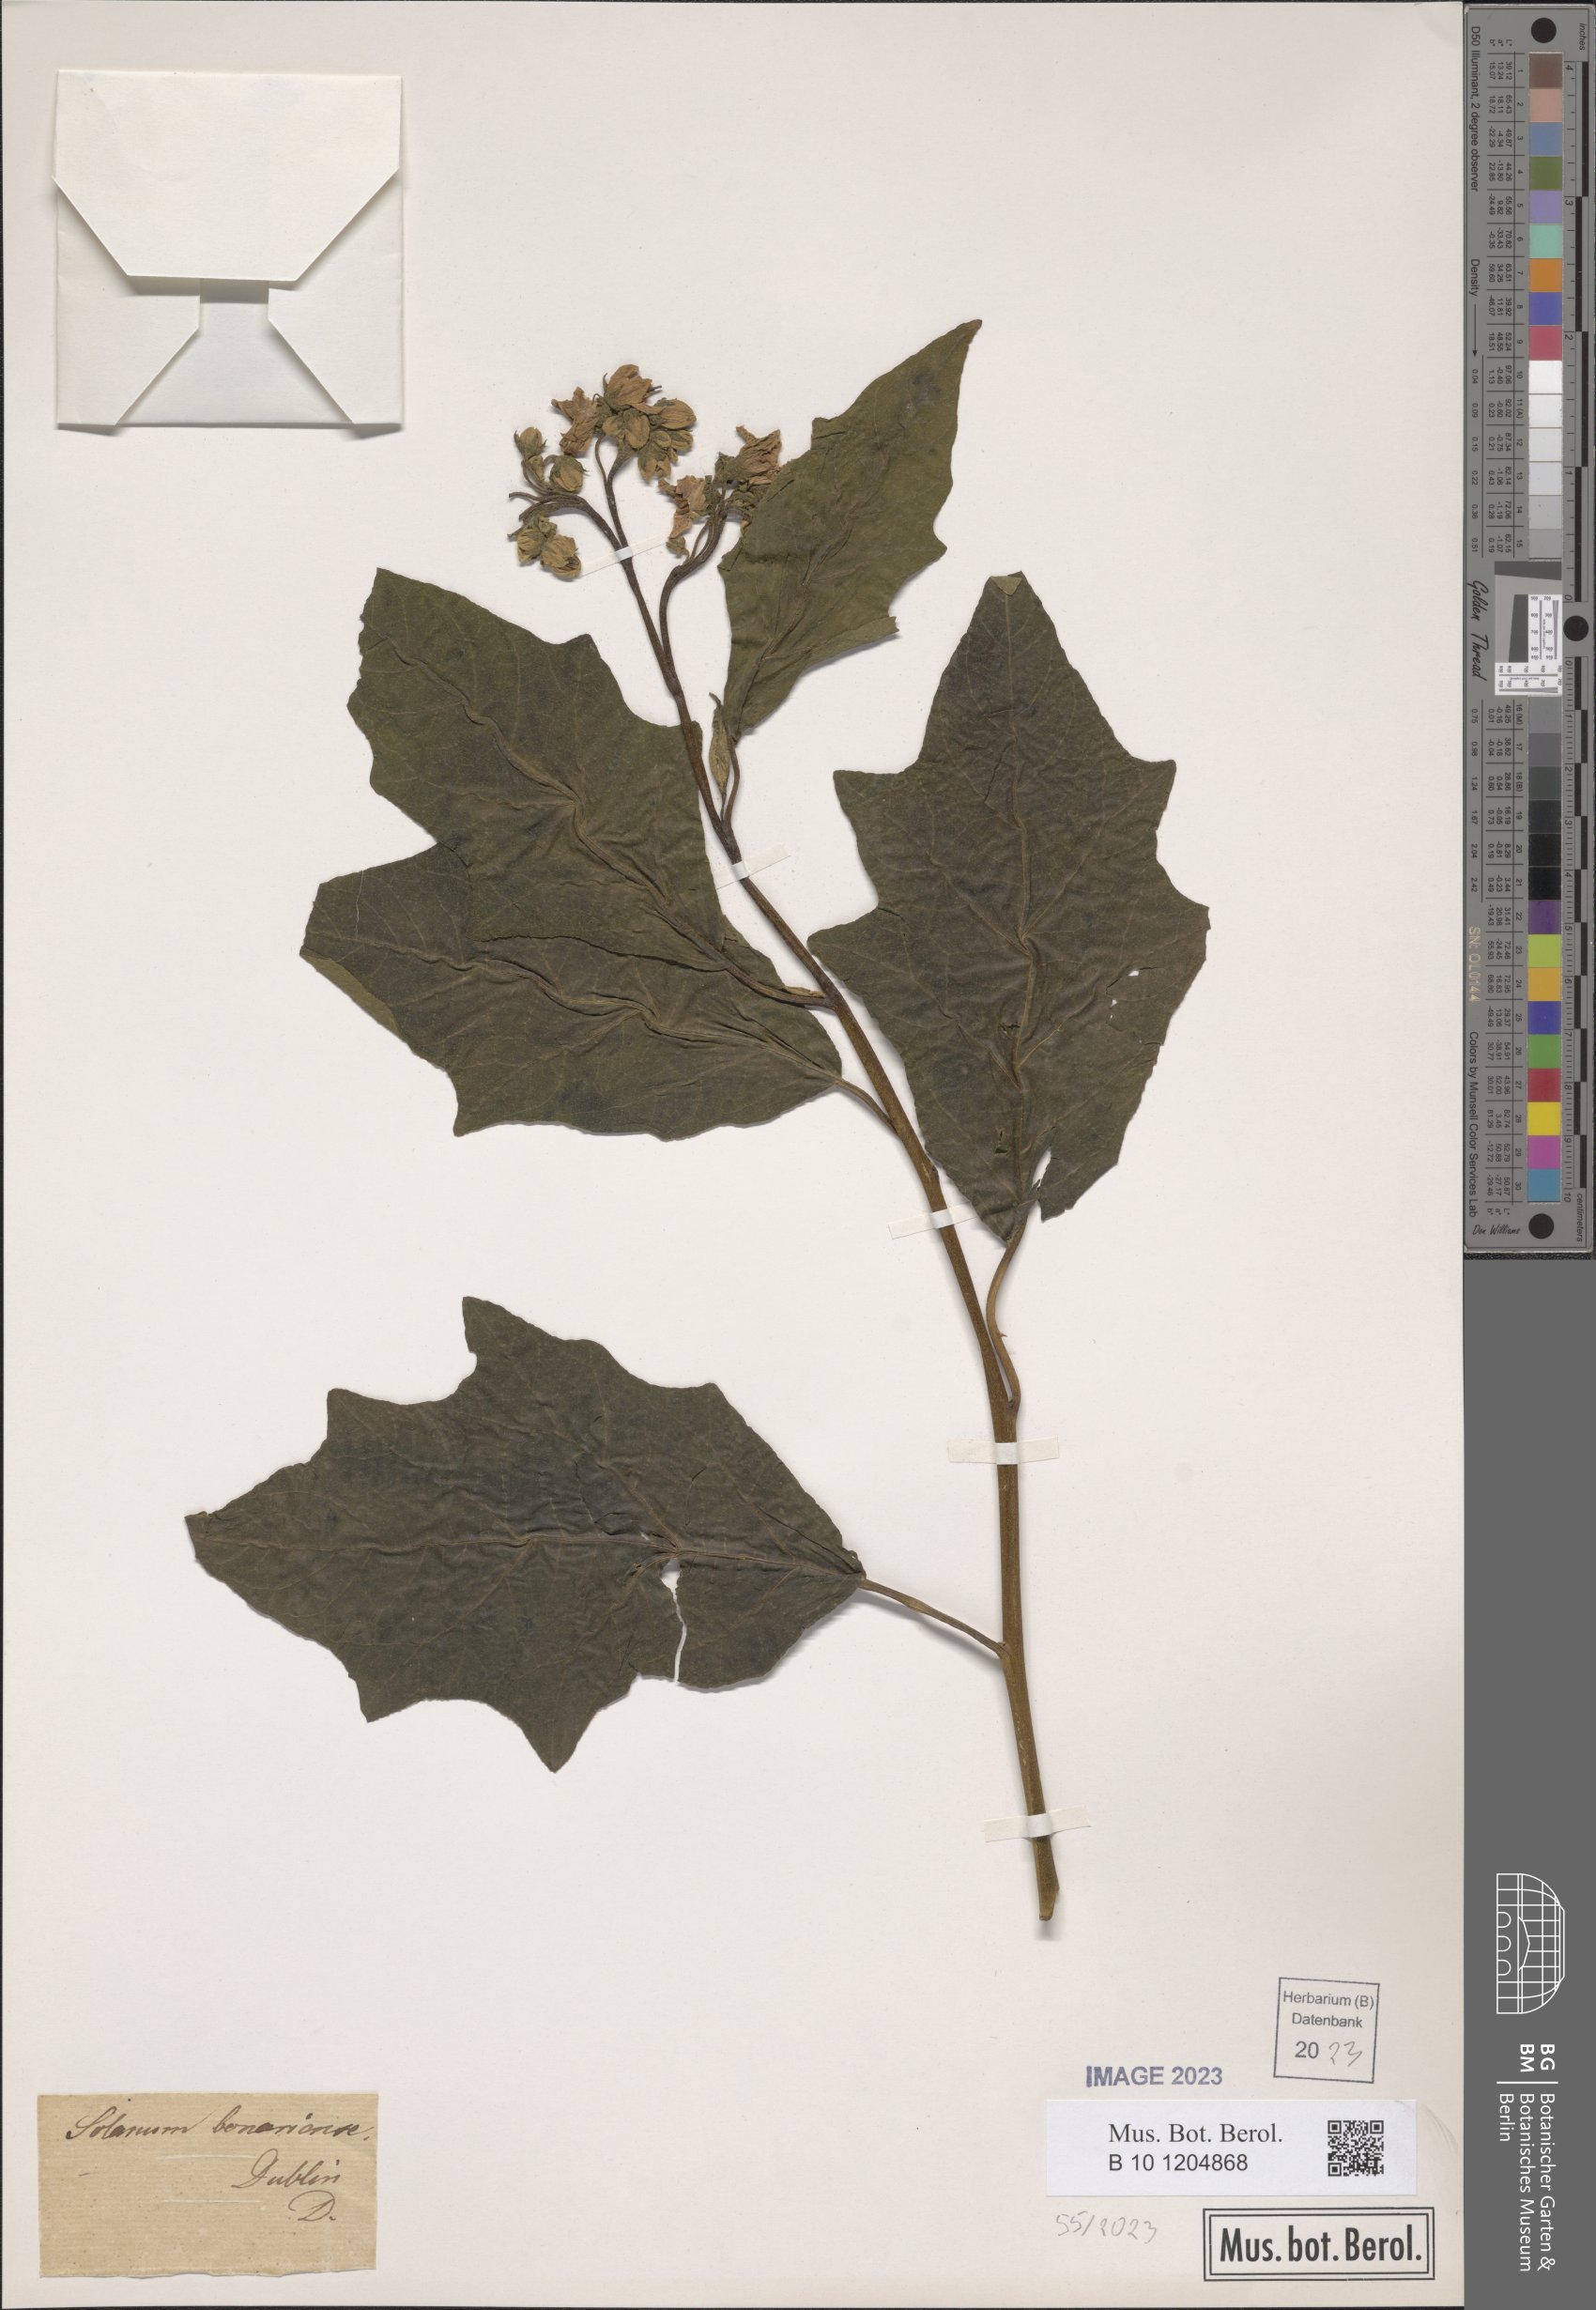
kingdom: Plantae
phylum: Tracheophyta
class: Magnoliopsida
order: Solanales
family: Solanaceae
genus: Solanum
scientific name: Solanum bonariense
